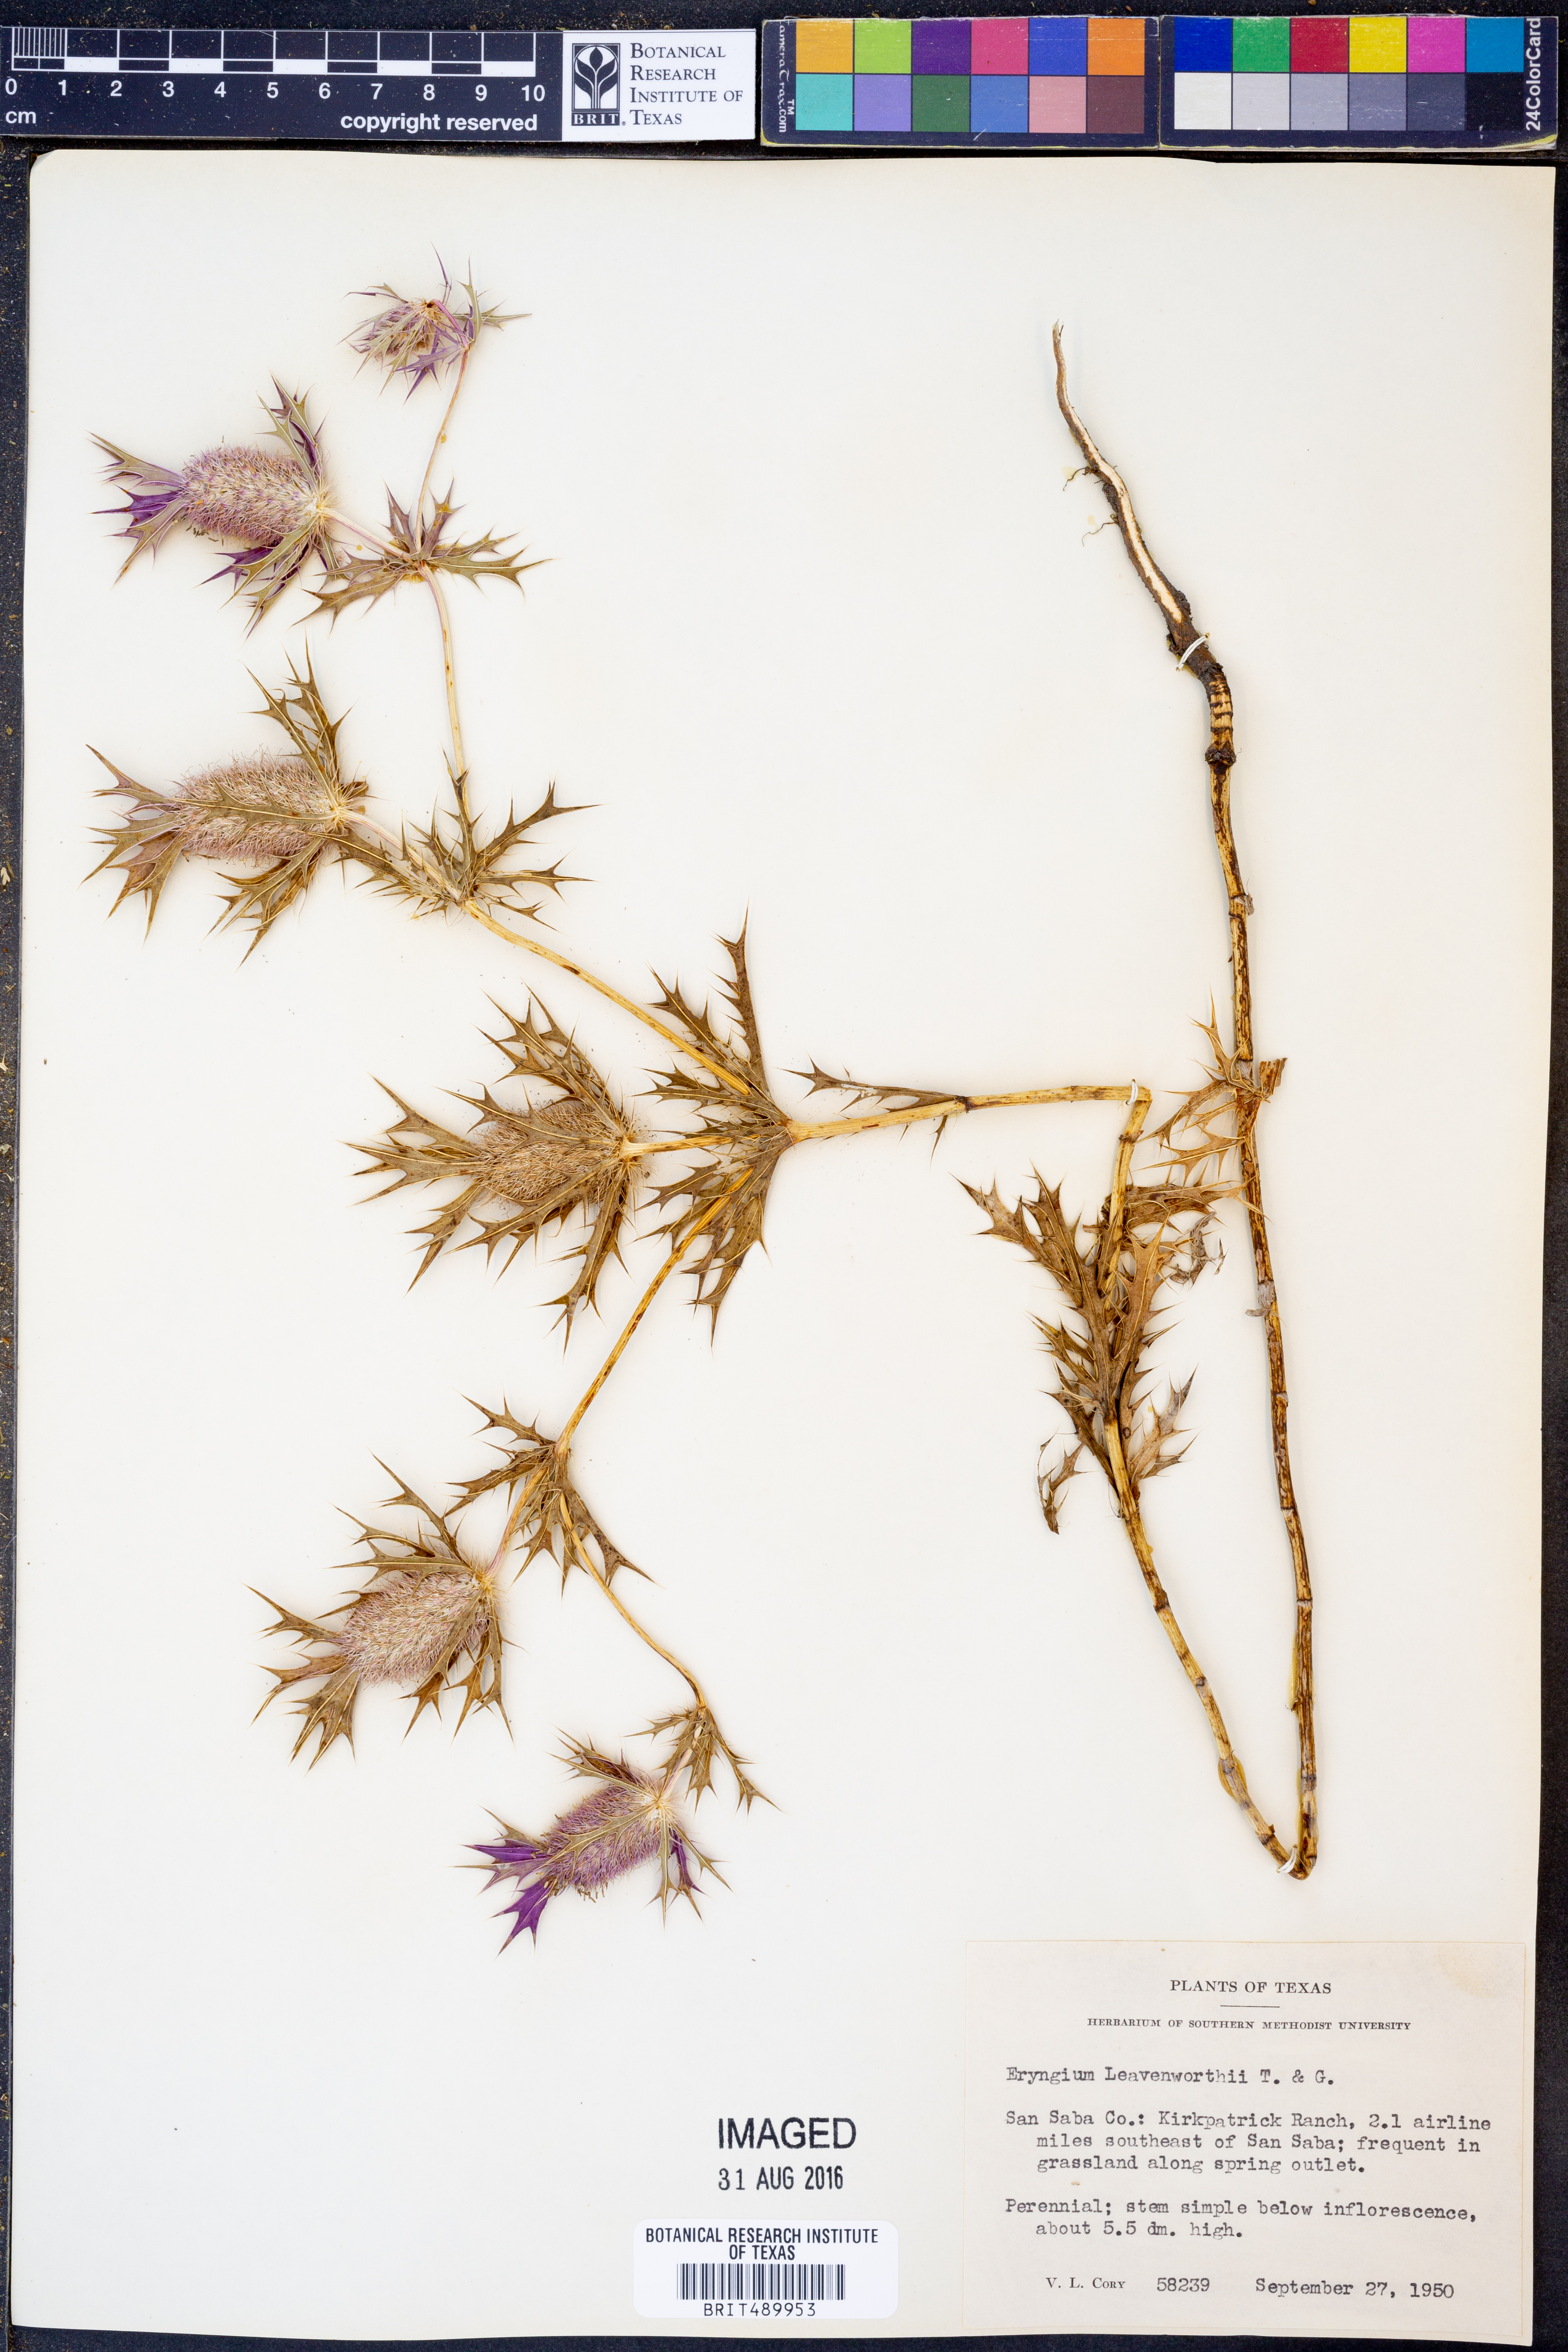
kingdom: Plantae
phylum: Tracheophyta
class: Magnoliopsida
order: Apiales
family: Apiaceae
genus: Eryngium
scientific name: Eryngium leavenworthii
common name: Leavenworth's eryngo
